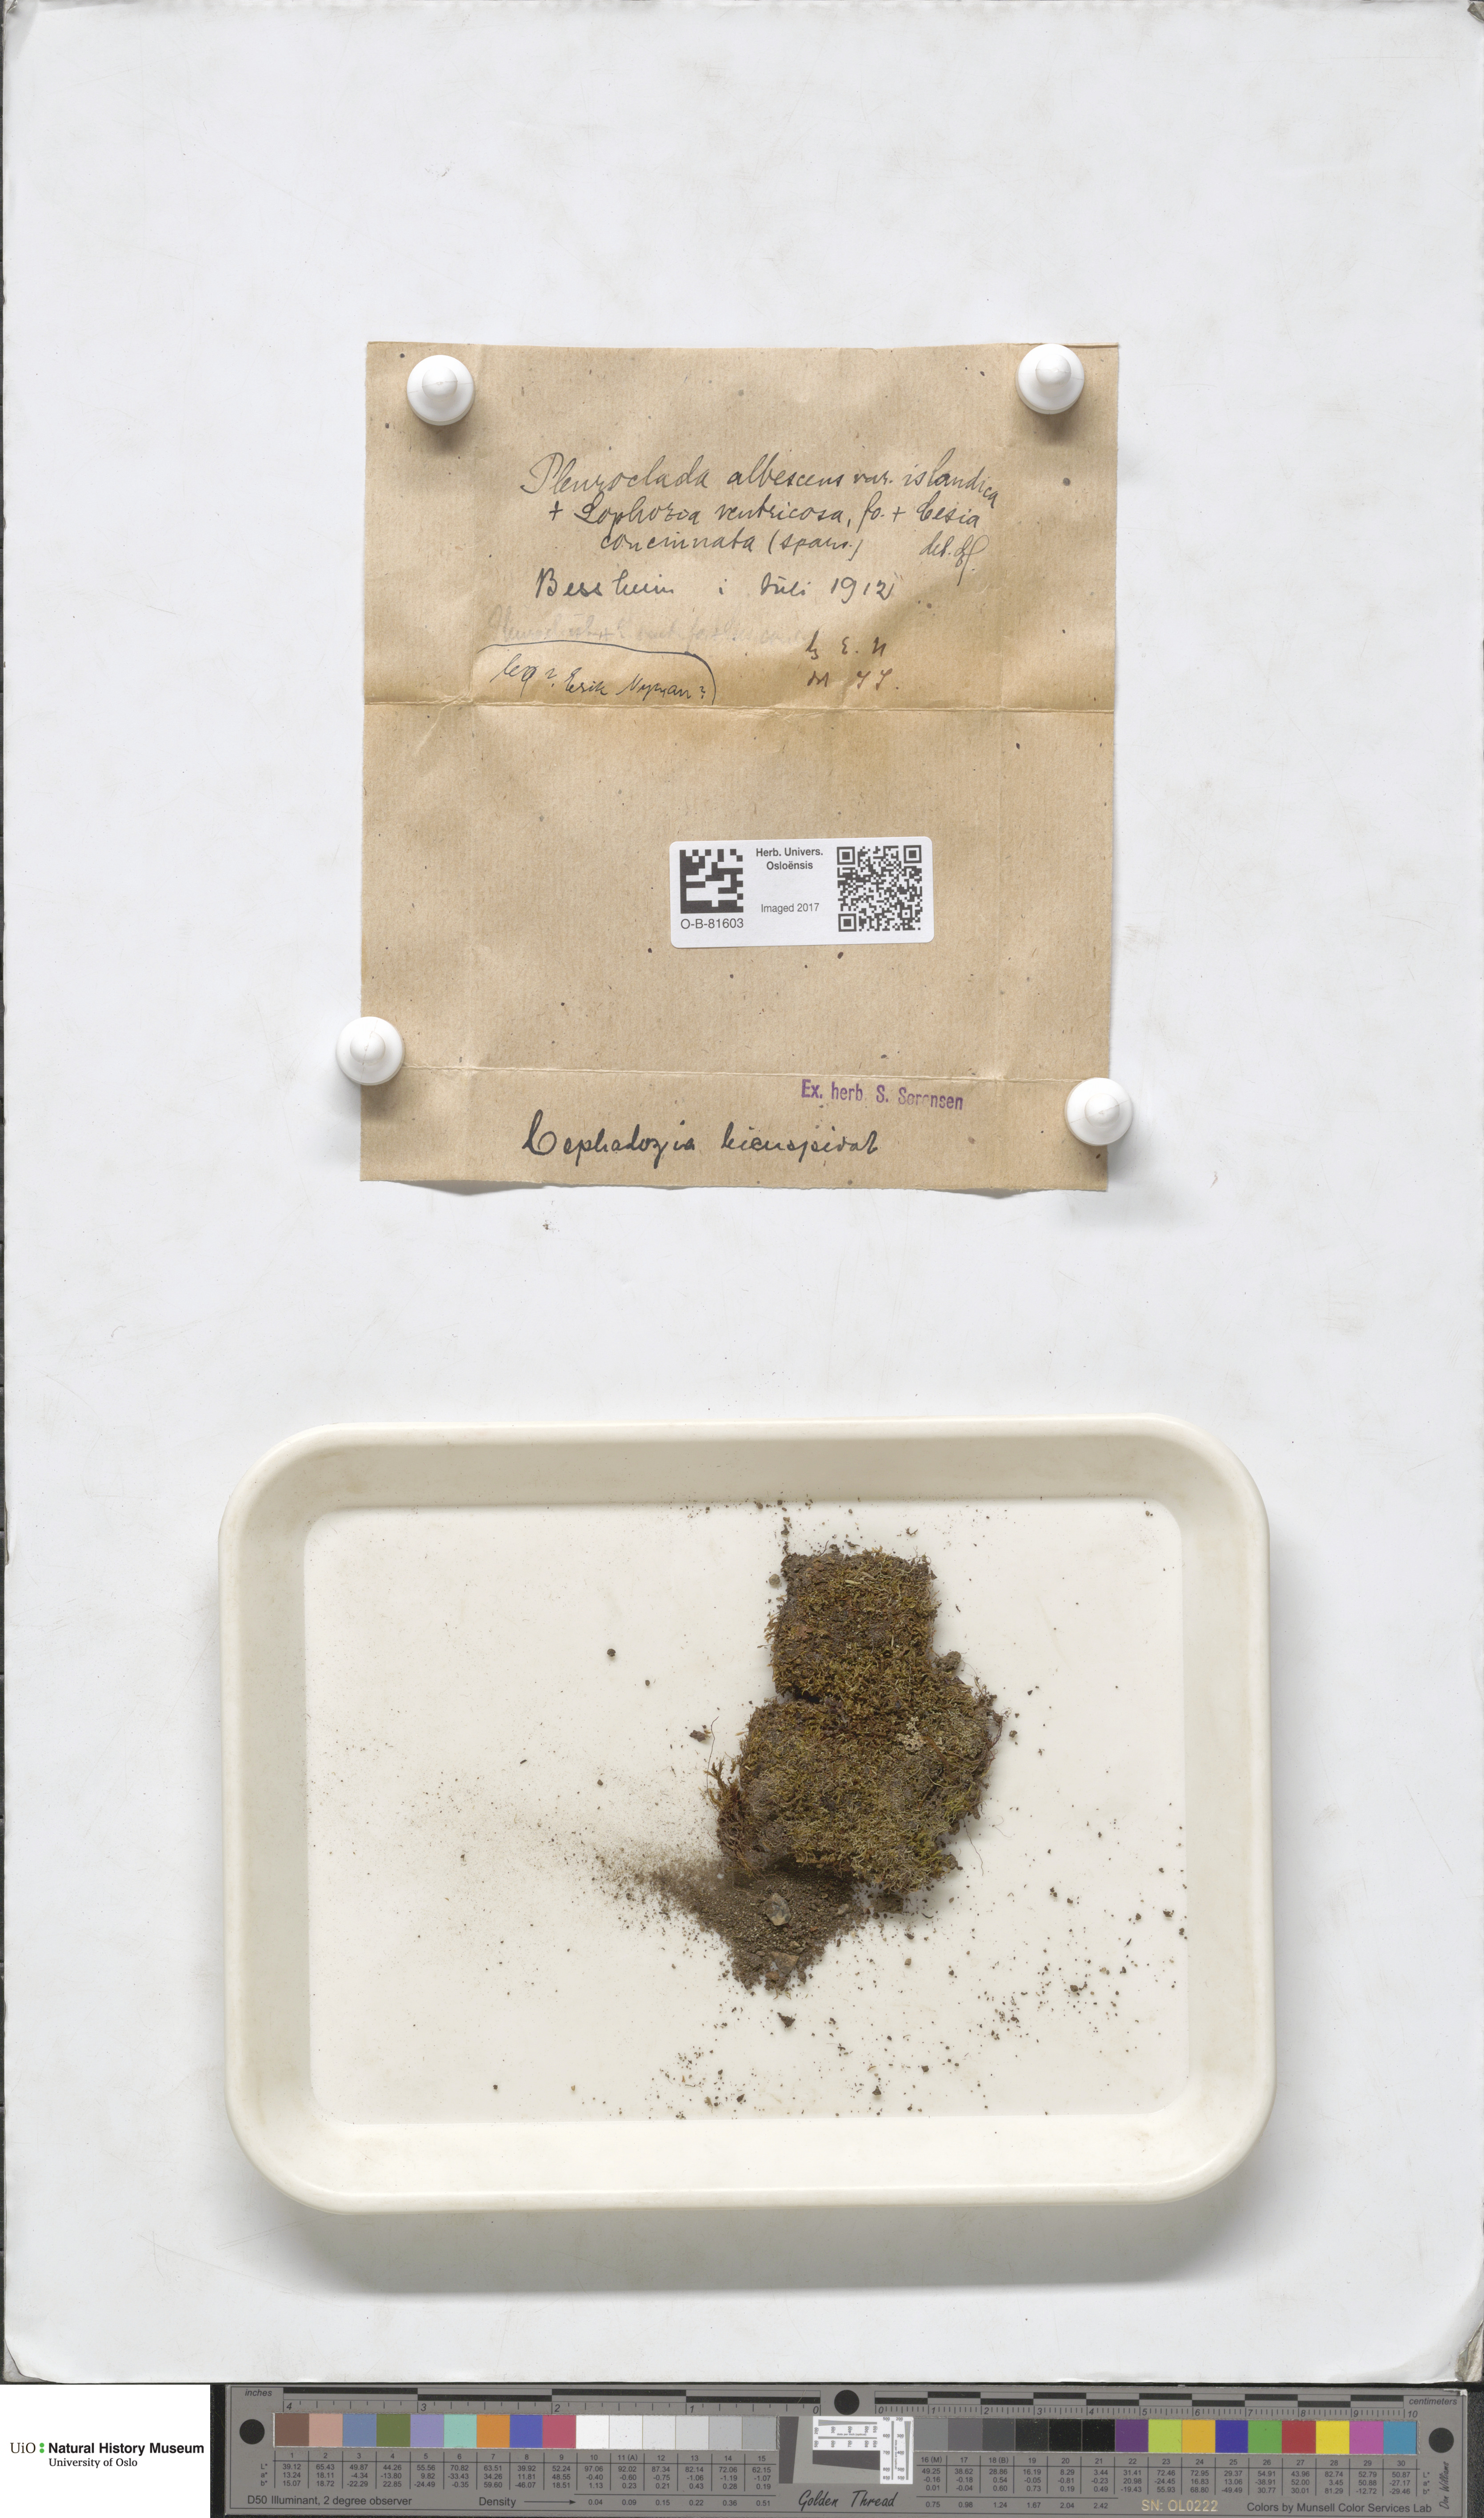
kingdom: Plantae
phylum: Marchantiophyta
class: Jungermanniopsida
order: Jungermanniales
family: Cephaloziaceae
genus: Fuscocephaloziopsis
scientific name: Fuscocephaloziopsis albescens
